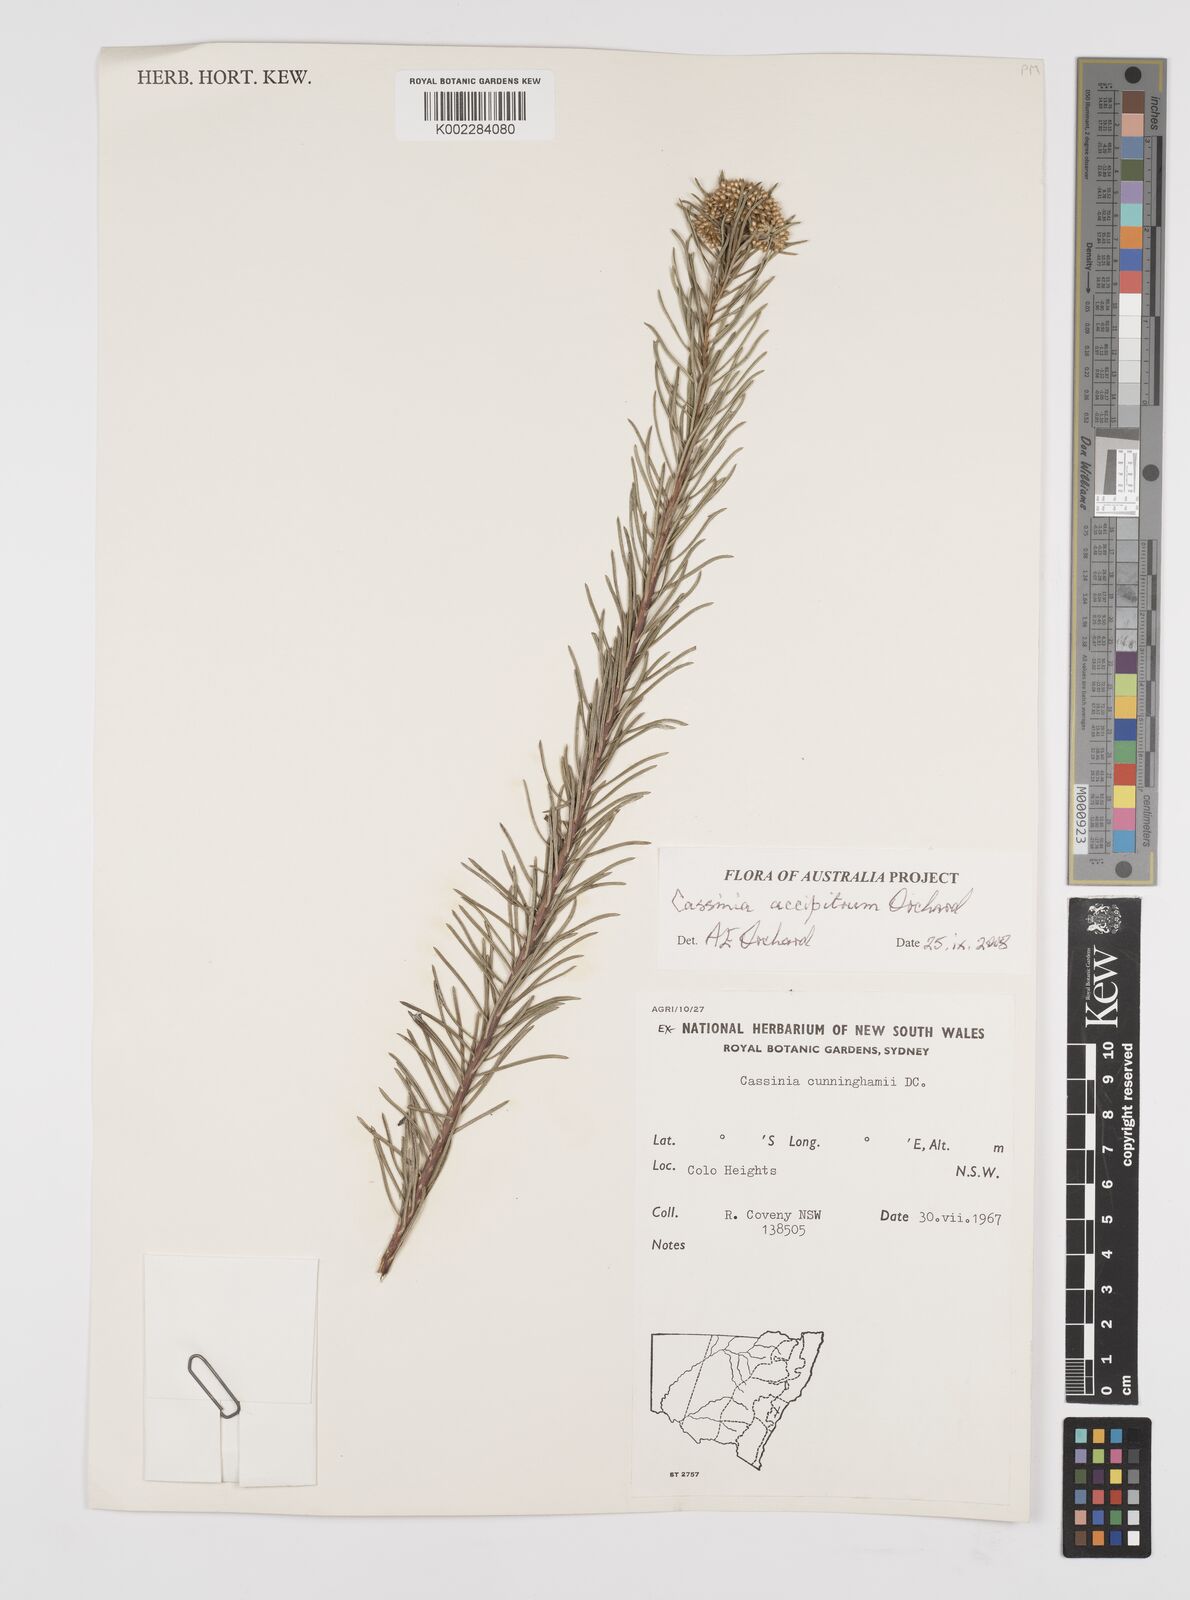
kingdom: Plantae
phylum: Tracheophyta
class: Magnoliopsida
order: Asterales
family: Asteraceae
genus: Cassinia
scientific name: Cassinia accipitrum
